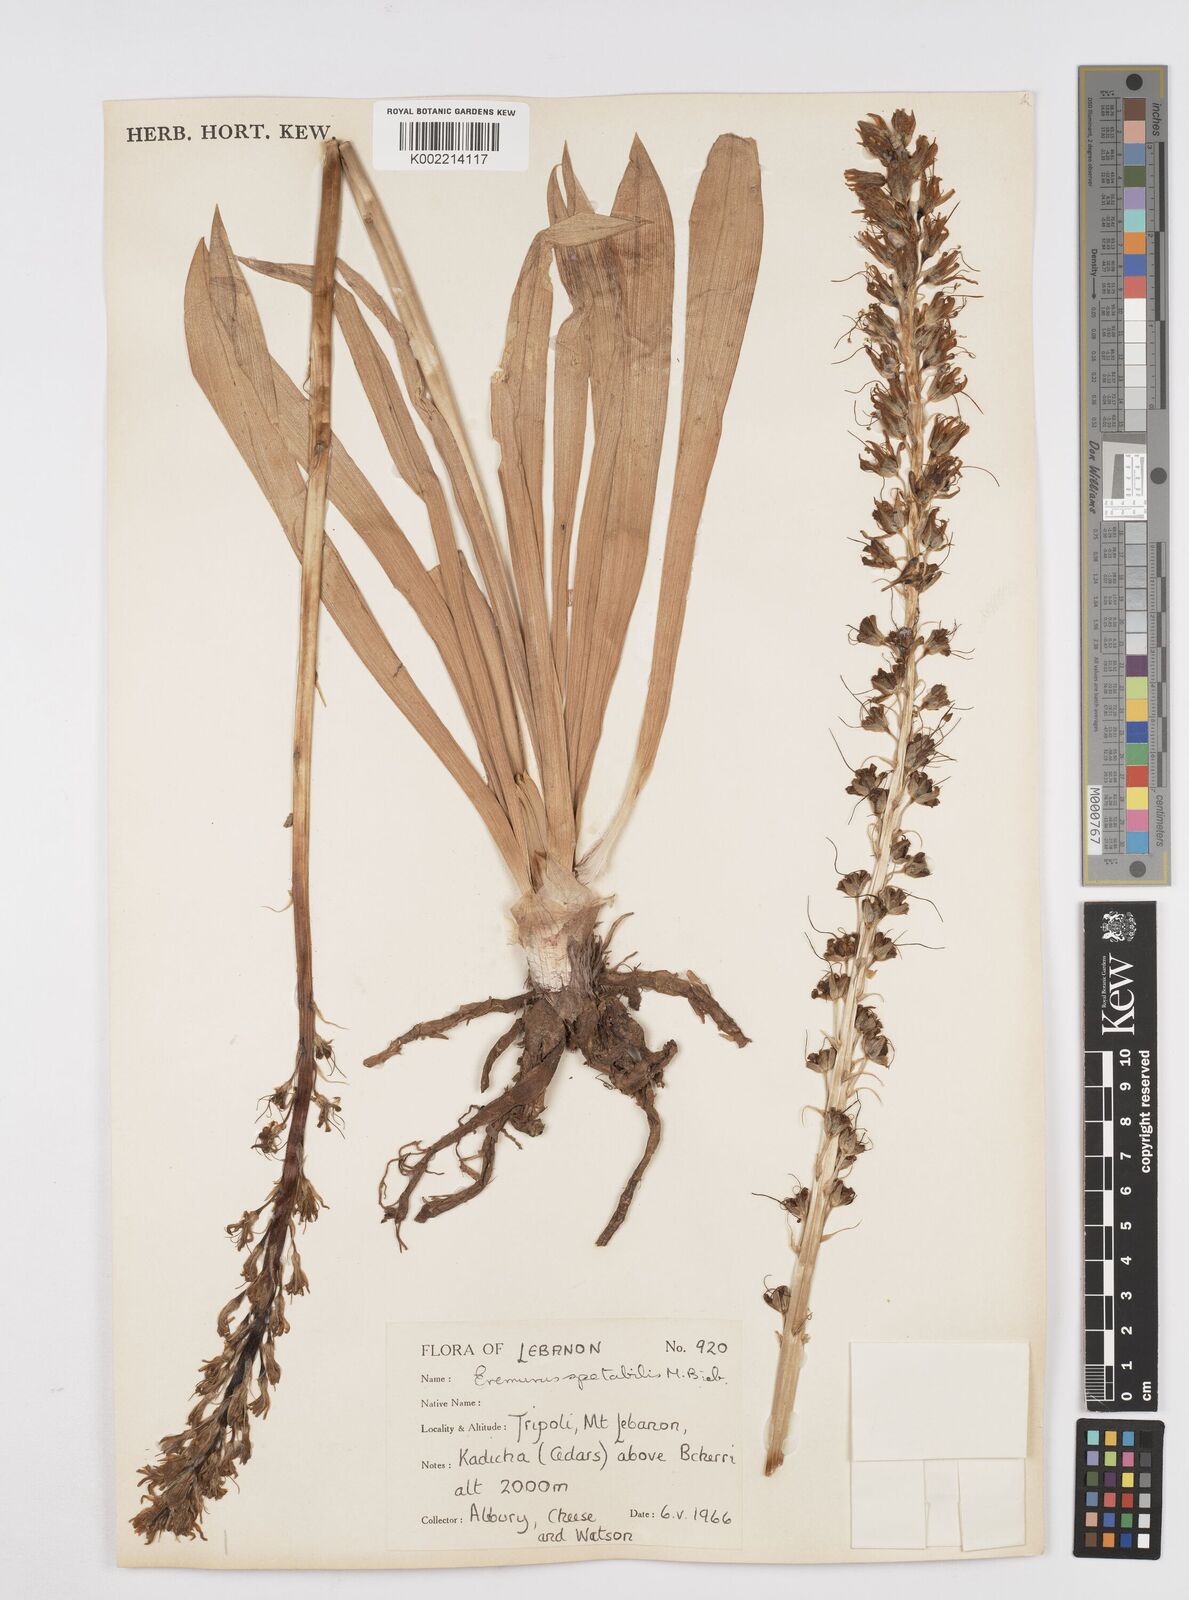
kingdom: Plantae
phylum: Tracheophyta
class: Liliopsida
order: Asparagales
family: Asphodelaceae
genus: Eremurus
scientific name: Eremurus spectabilis
